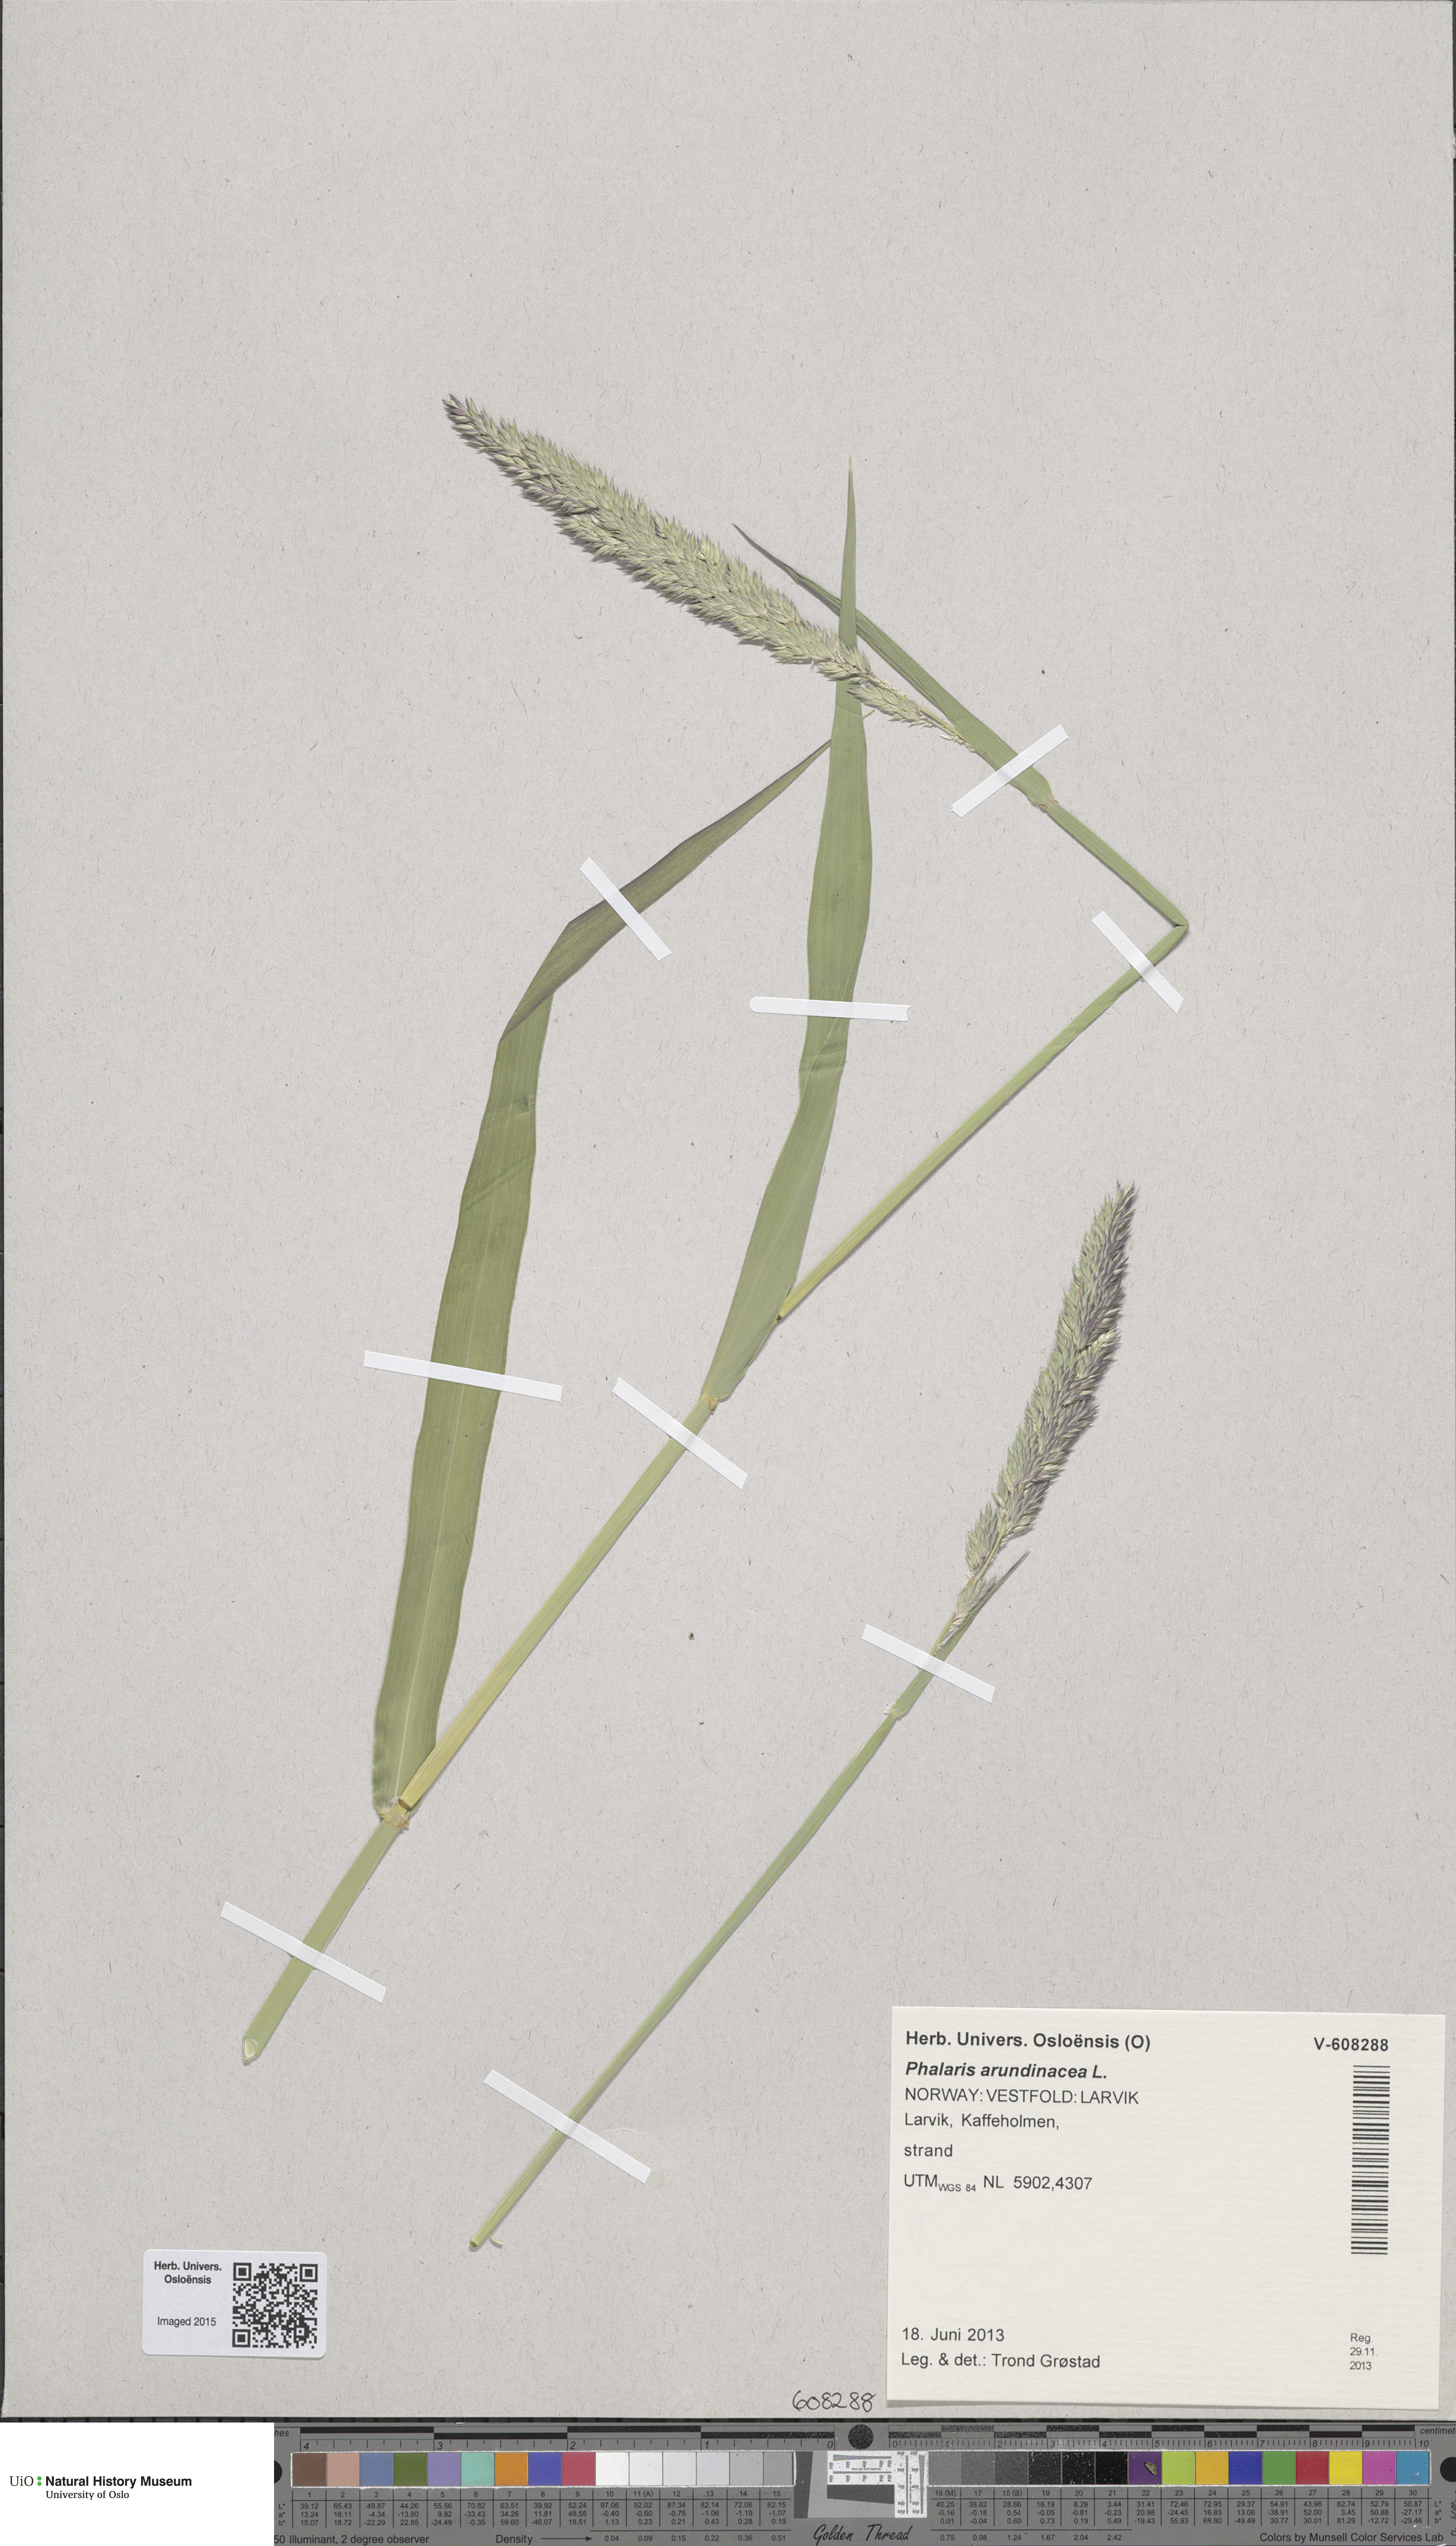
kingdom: Plantae
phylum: Tracheophyta
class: Liliopsida
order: Poales
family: Poaceae
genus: Phalaris
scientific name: Phalaris arundinacea
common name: Reed canary-grass
